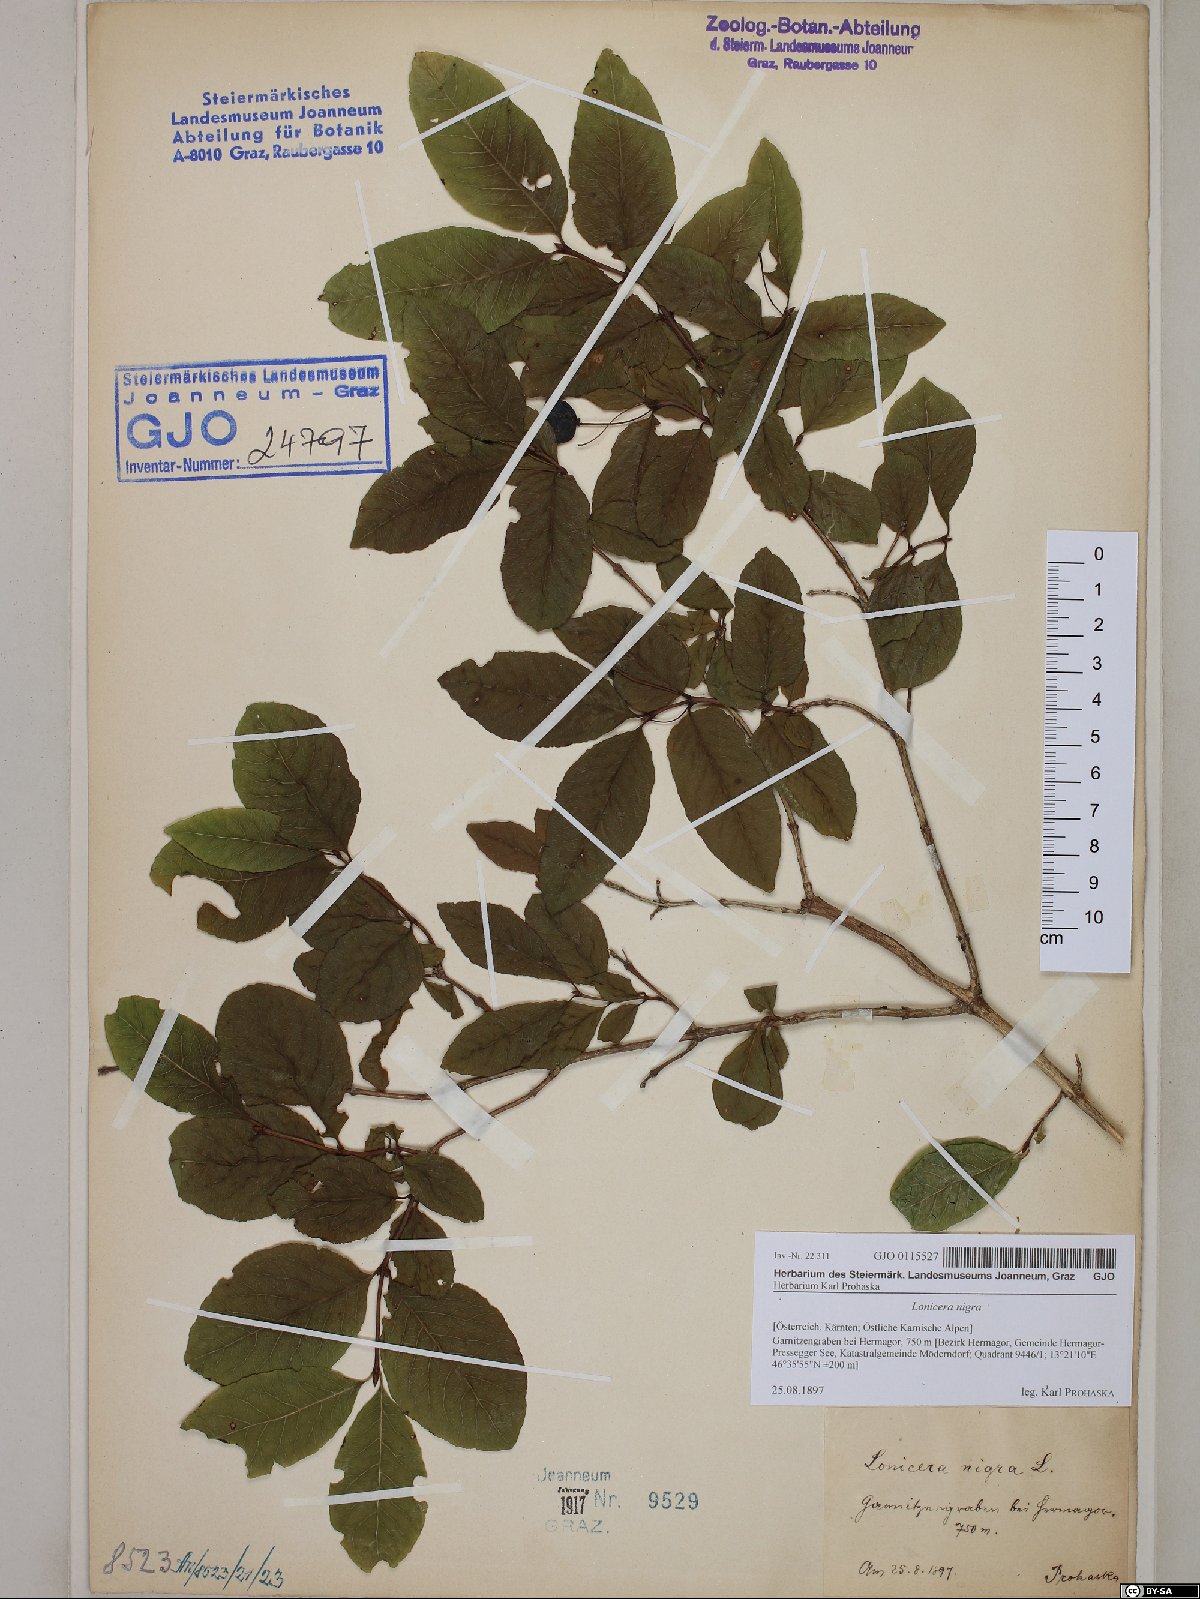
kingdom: Plantae
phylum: Tracheophyta
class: Magnoliopsida
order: Dipsacales
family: Caprifoliaceae
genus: Lonicera
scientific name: Lonicera nigra
